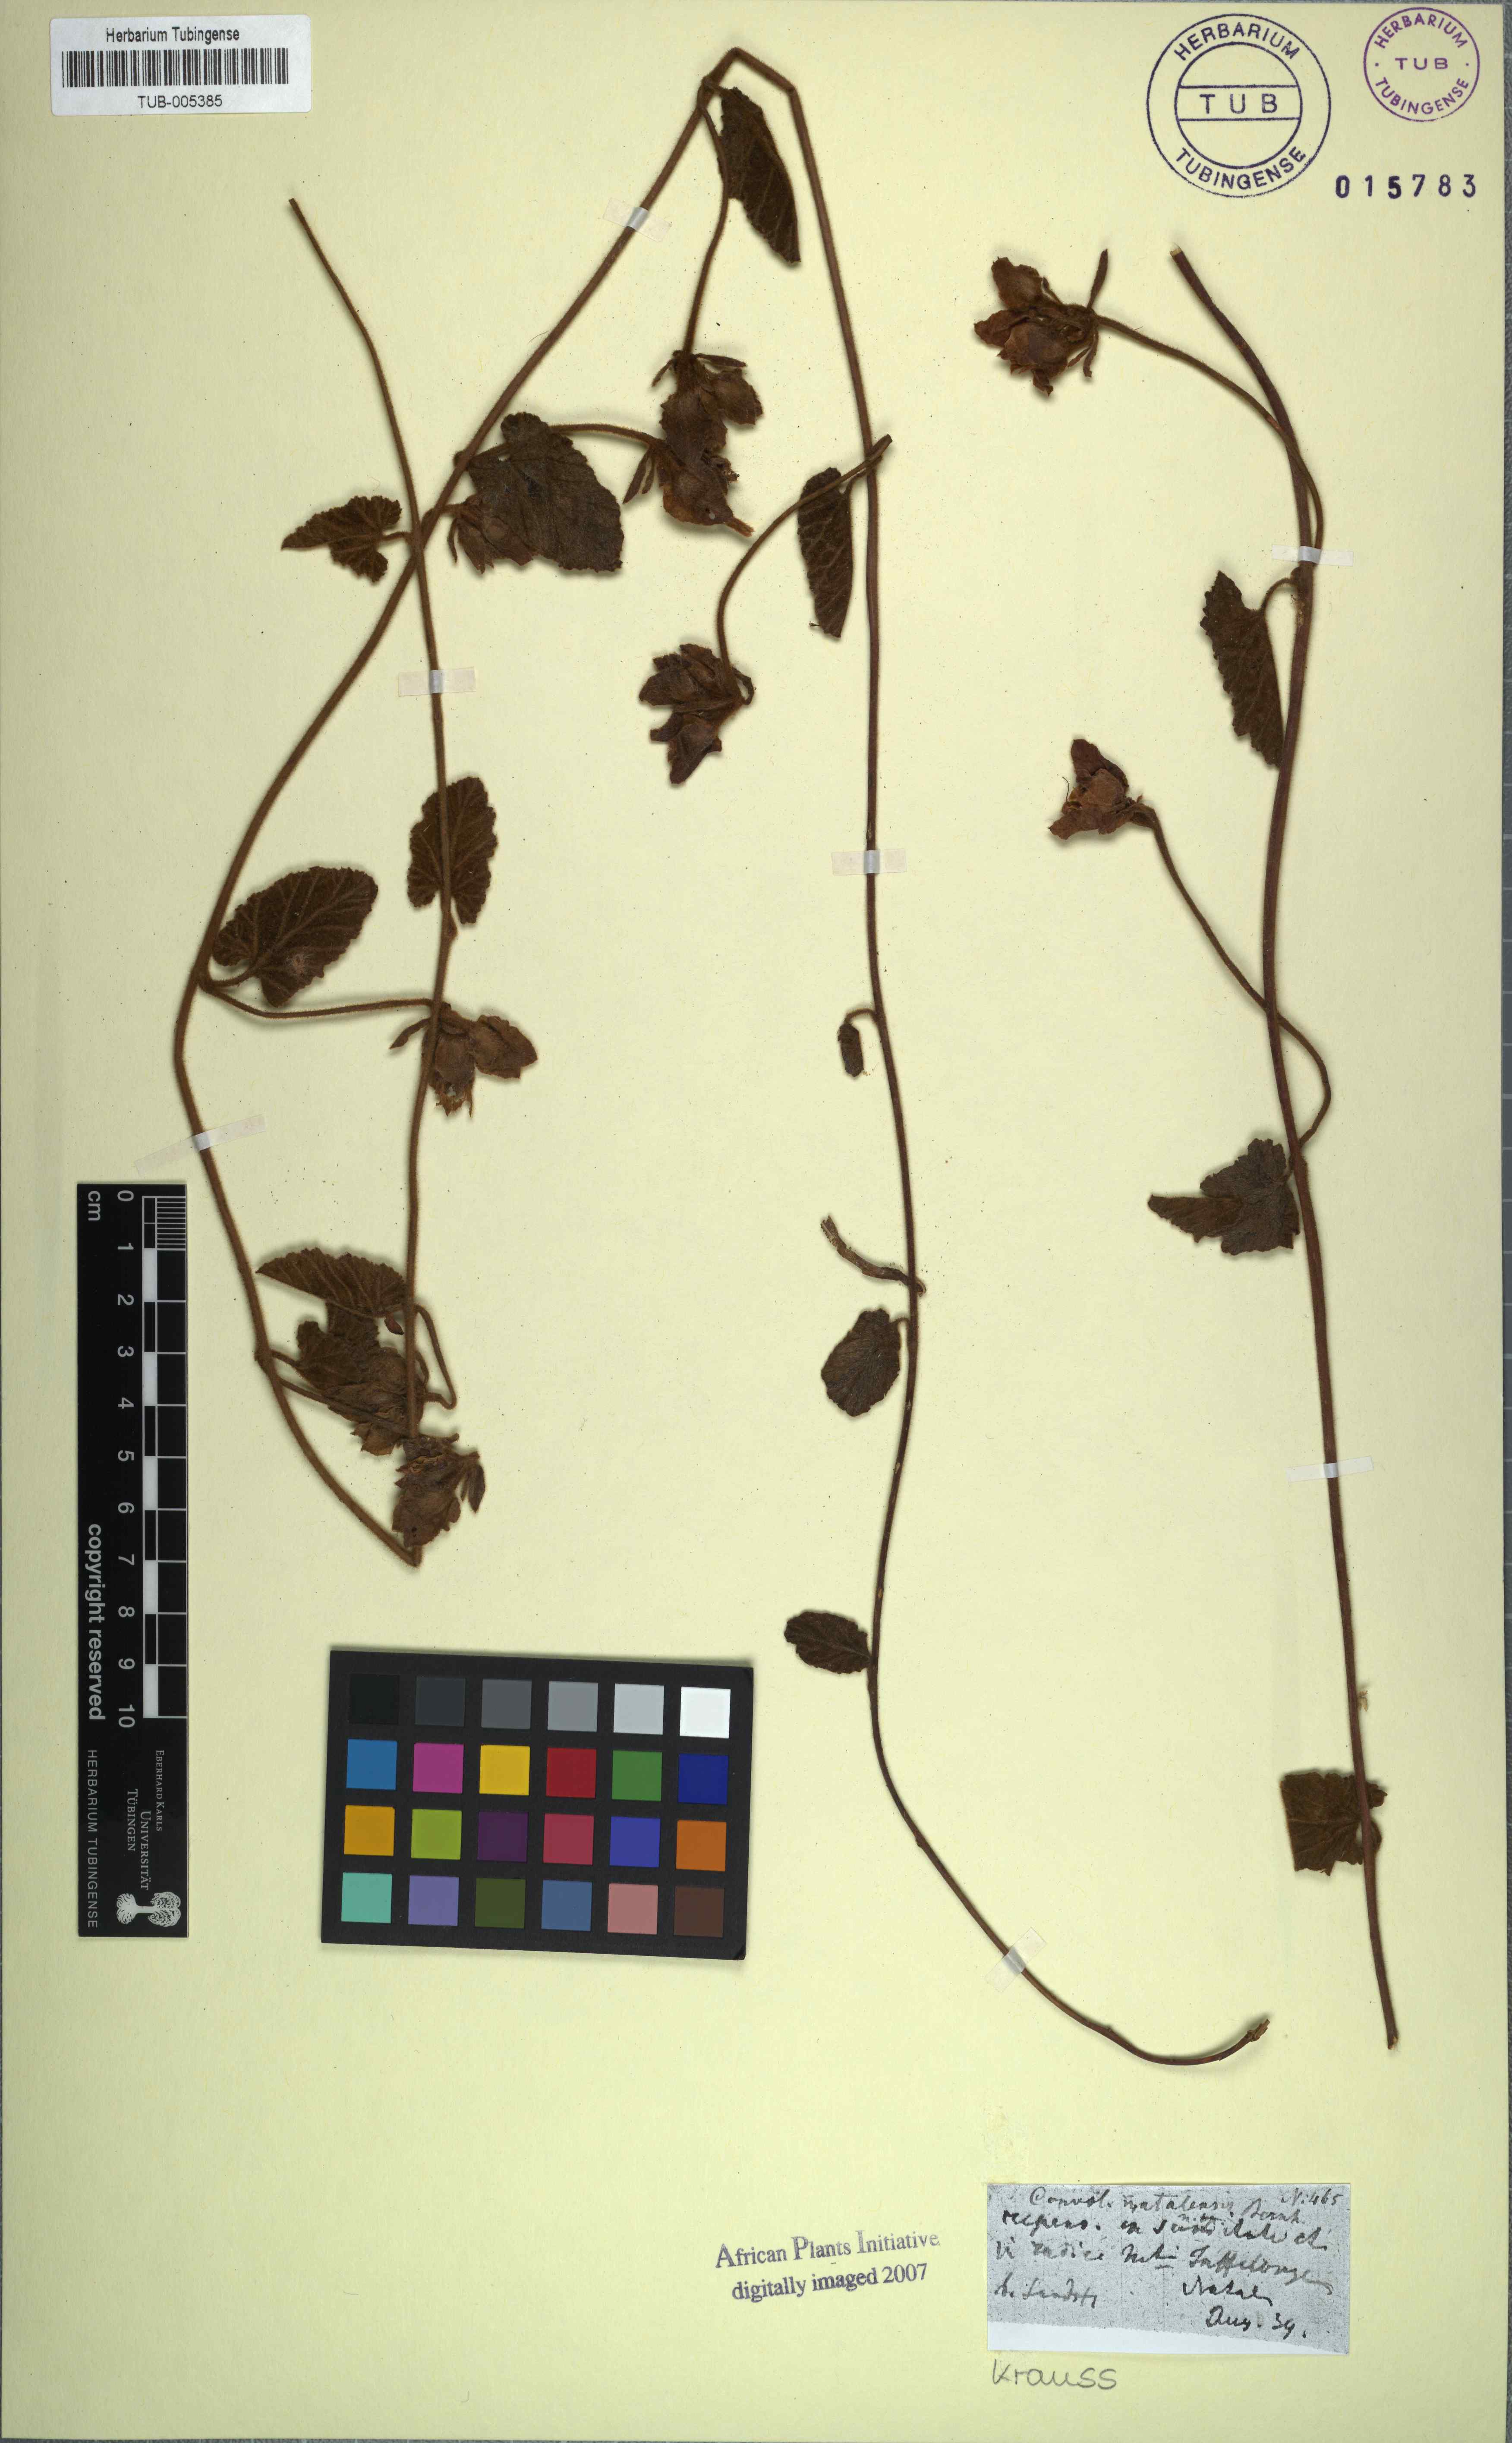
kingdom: Plantae
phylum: Tracheophyta
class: Magnoliopsida
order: Solanales
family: Convolvulaceae
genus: Convolvulus
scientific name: Convolvulus natalensis
